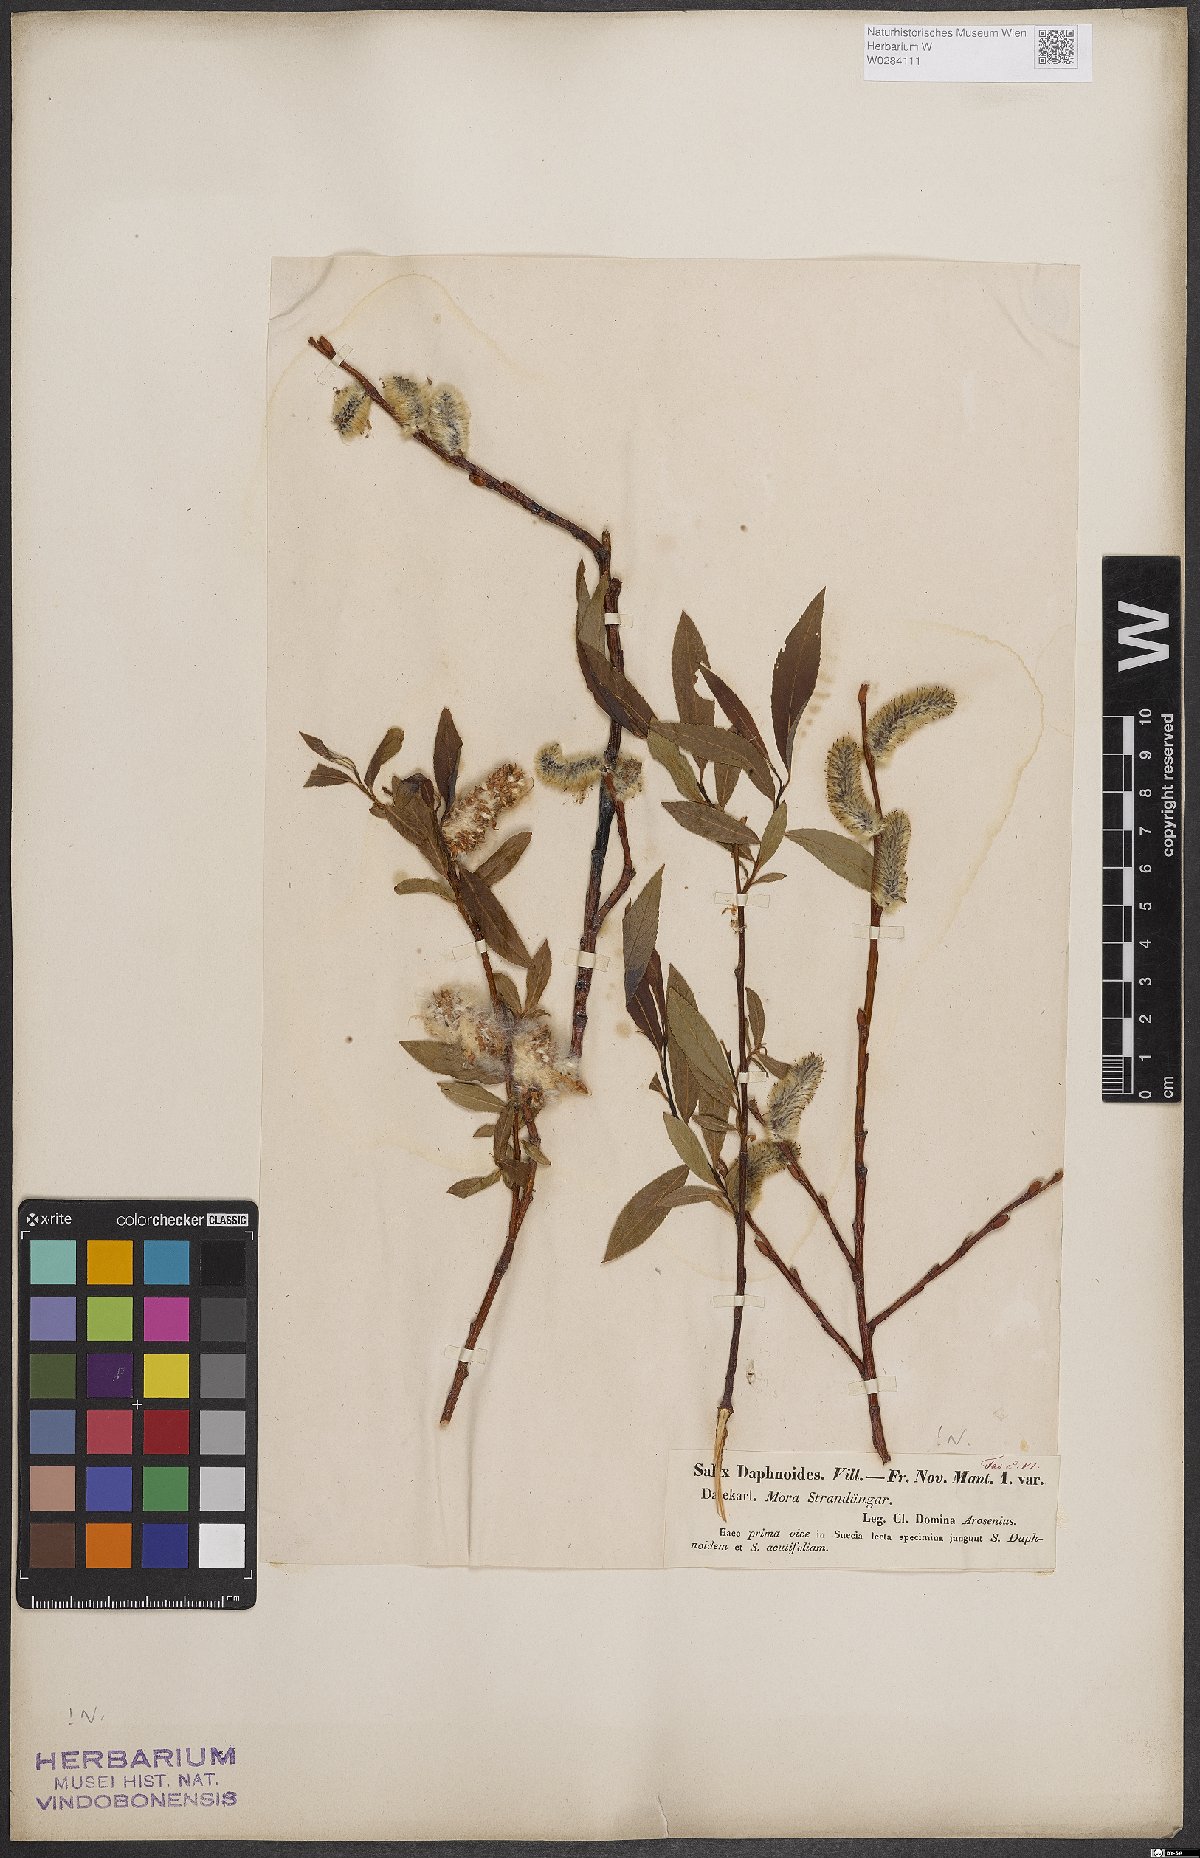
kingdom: Plantae
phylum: Tracheophyta
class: Magnoliopsida
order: Malpighiales
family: Salicaceae
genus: Salix
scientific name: Salix daphnoides
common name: European violet-willow
